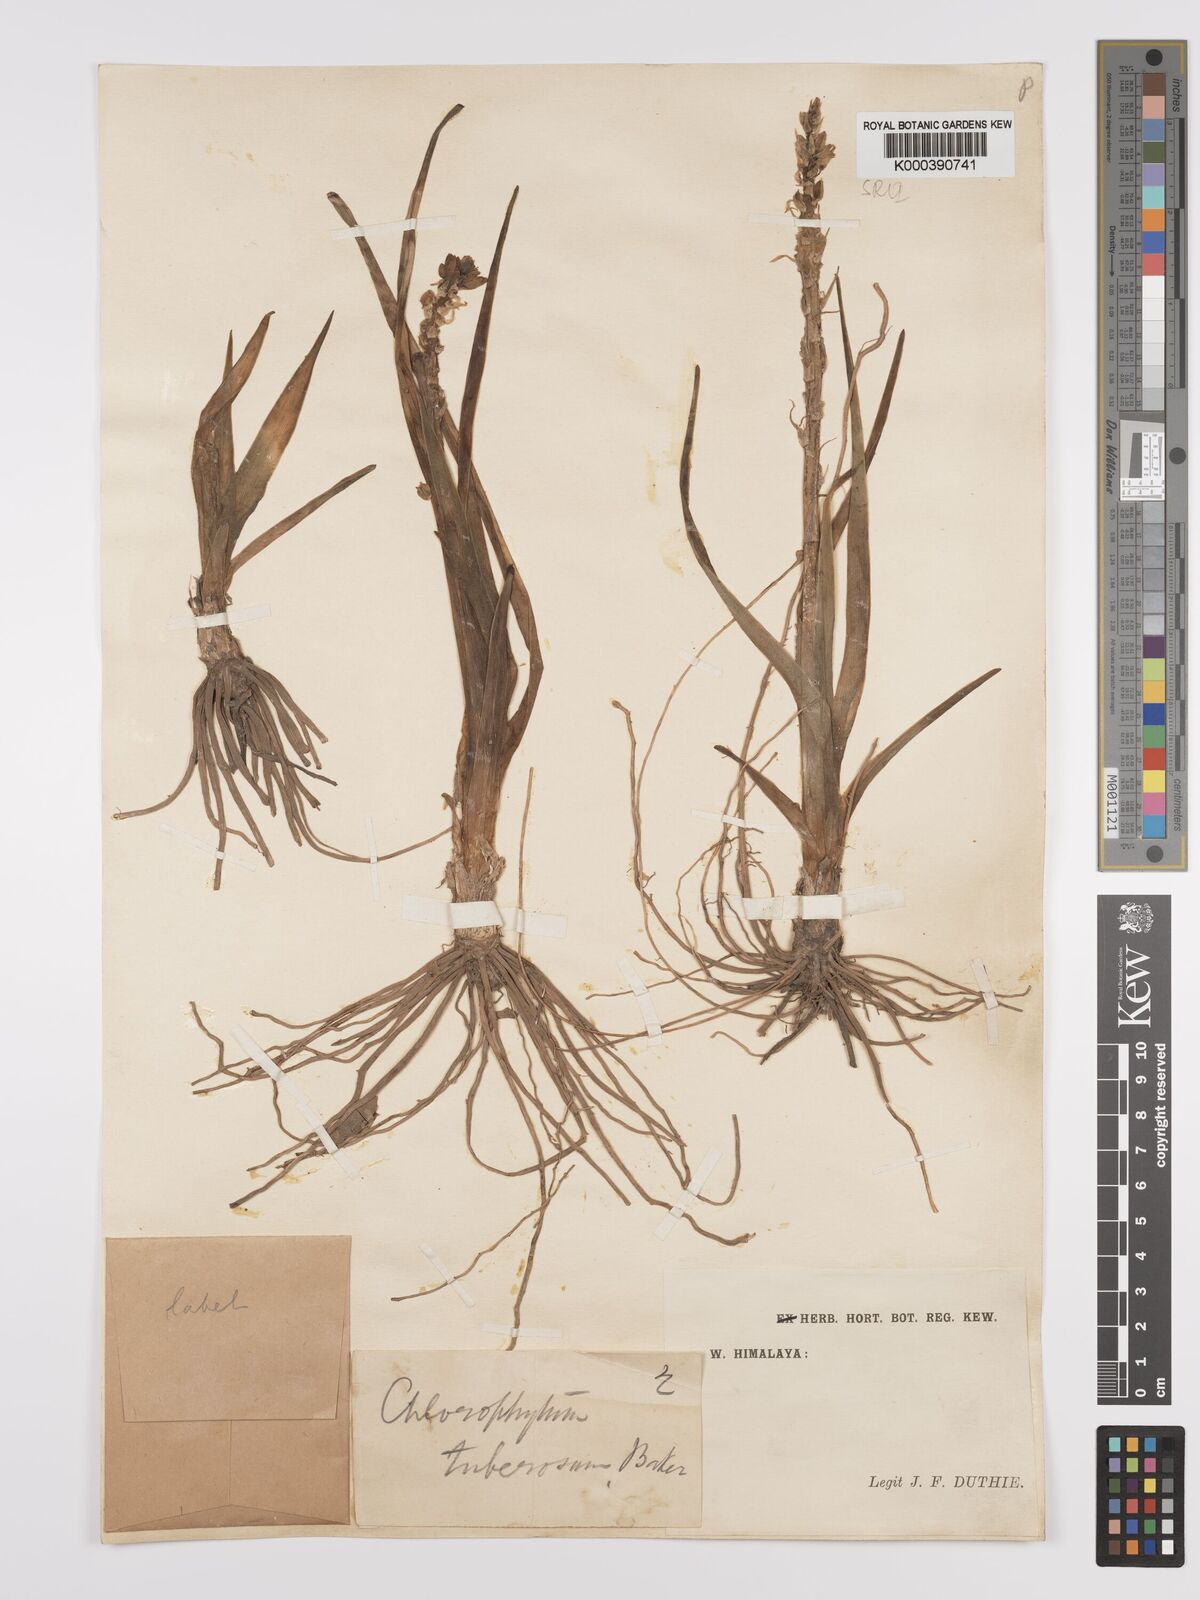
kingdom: Plantae
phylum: Tracheophyta
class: Liliopsida
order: Asparagales
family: Asparagaceae
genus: Chlorophytum
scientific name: Chlorophytum tuberosum
